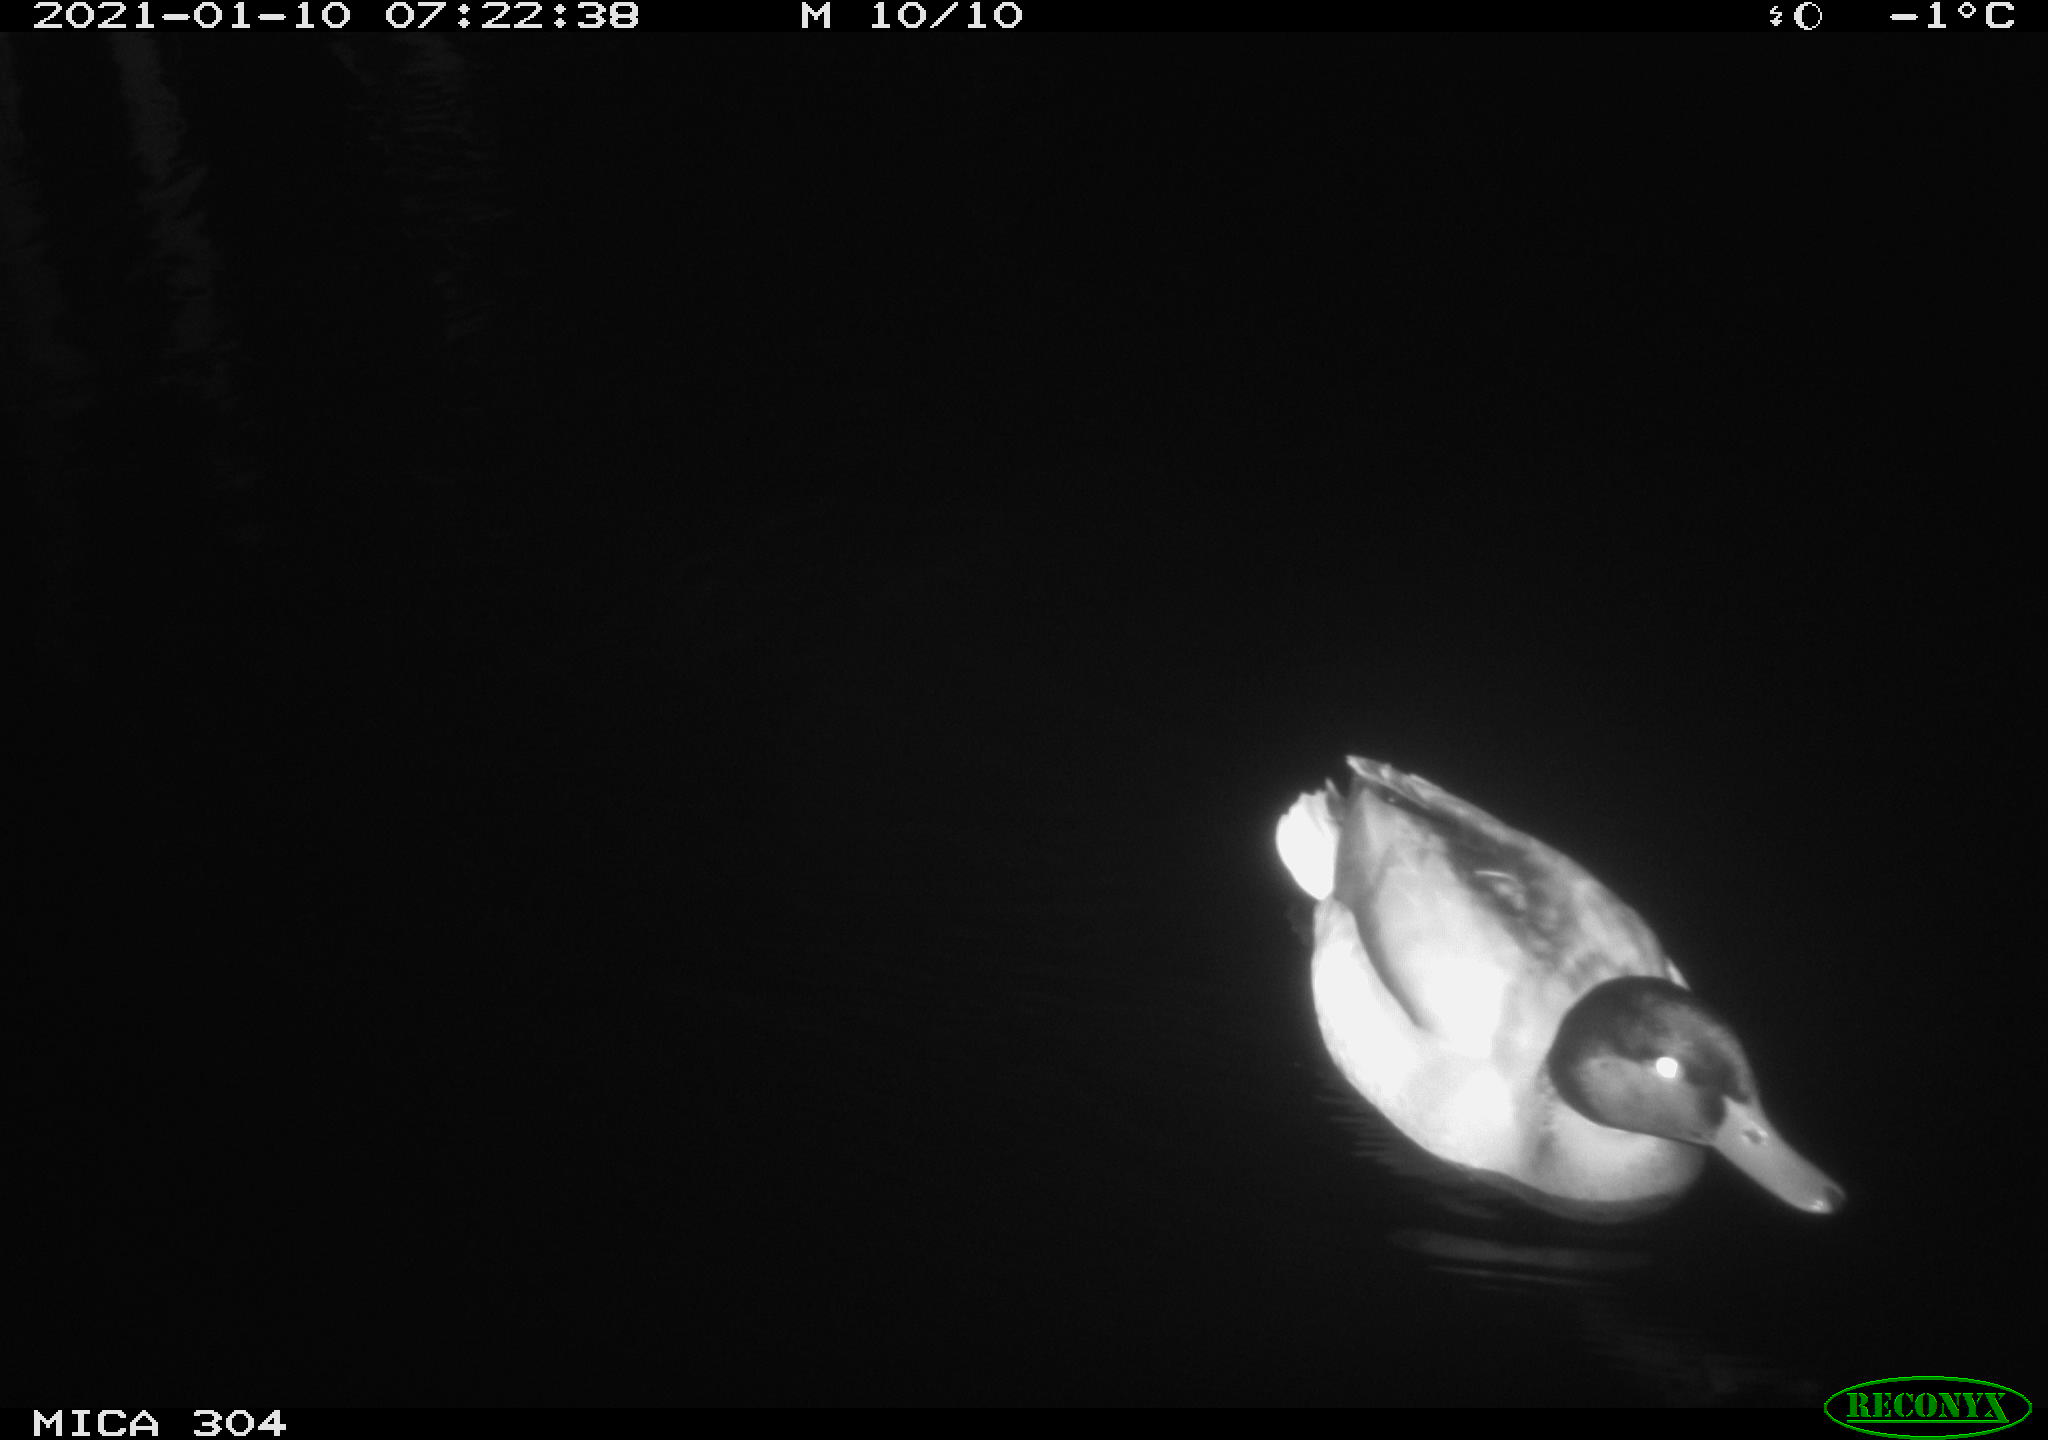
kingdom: Animalia
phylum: Chordata
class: Aves
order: Anseriformes
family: Anatidae
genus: Anas
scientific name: Anas platyrhynchos
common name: Mallard
